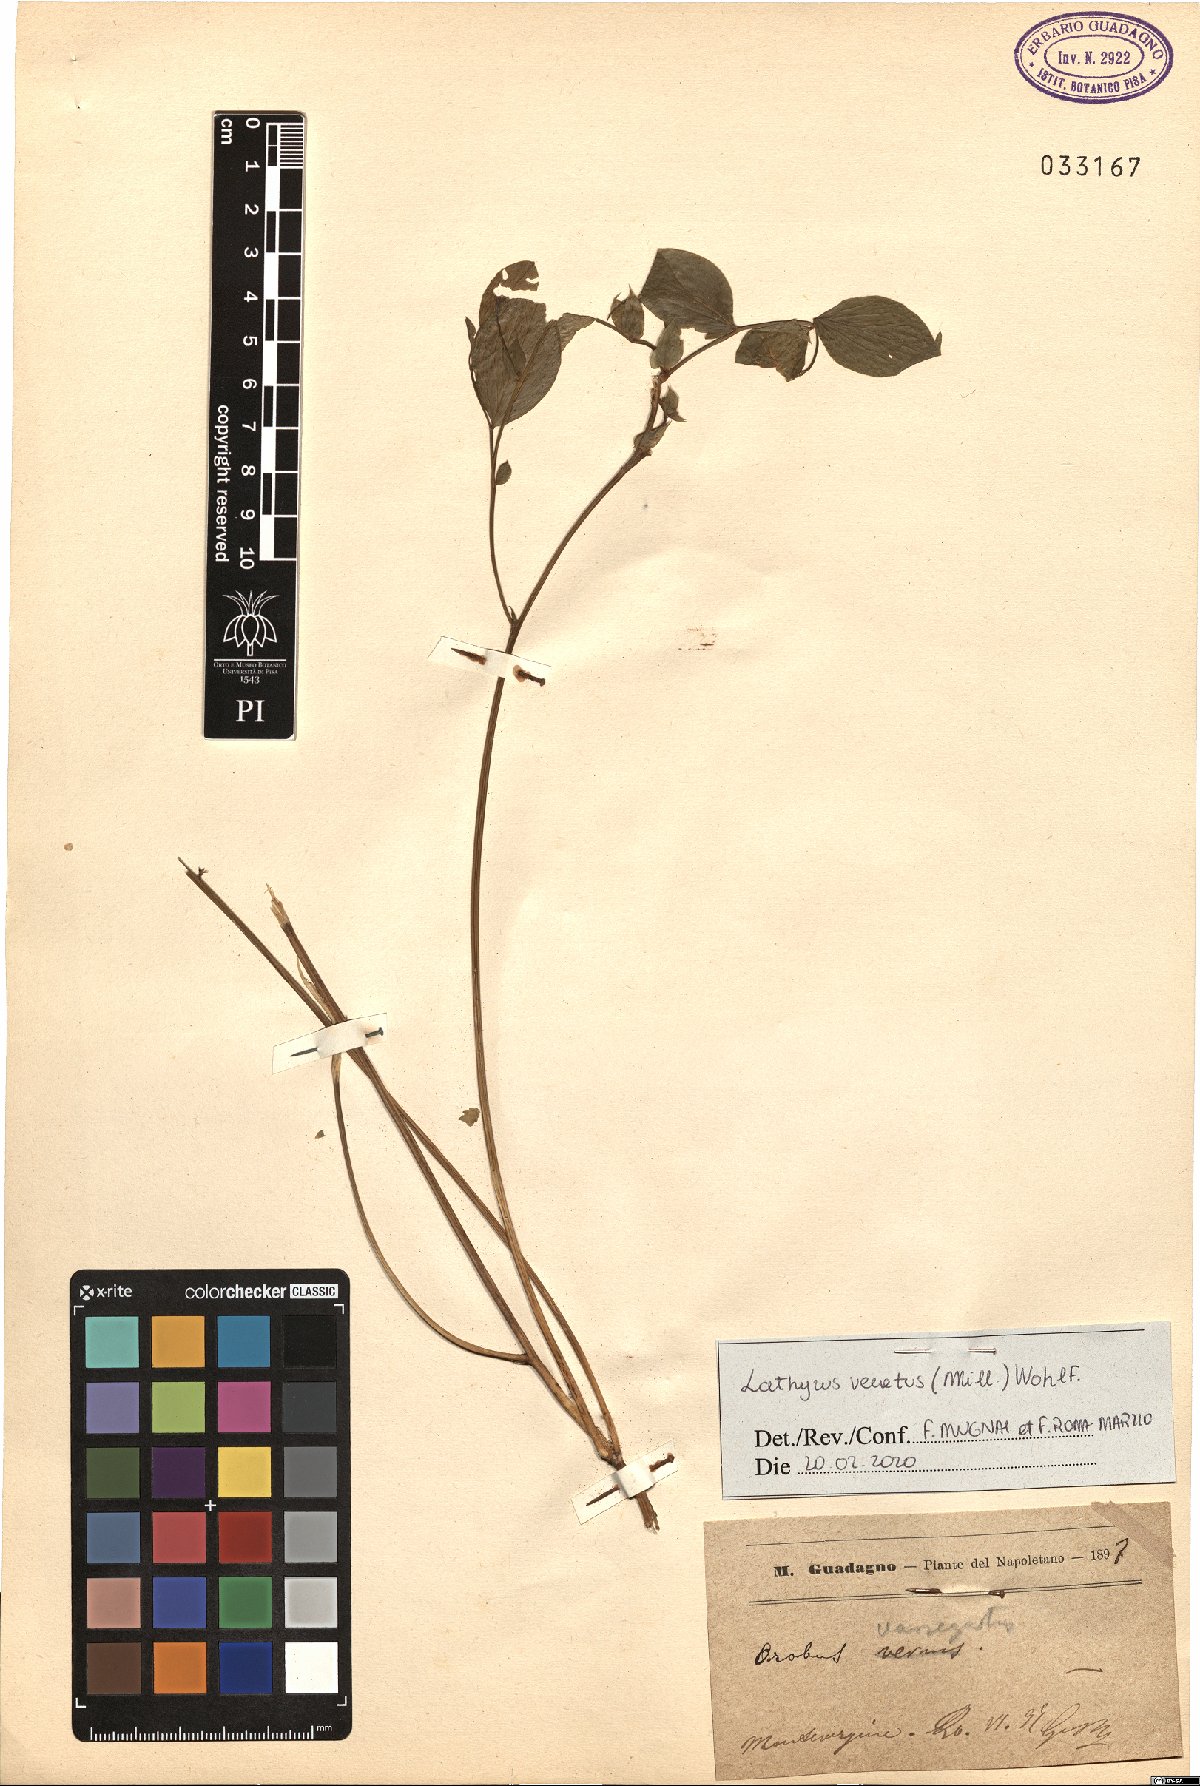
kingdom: Plantae
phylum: Tracheophyta
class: Magnoliopsida
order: Fabales
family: Fabaceae
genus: Lathyrus
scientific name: Lathyrus venetus
